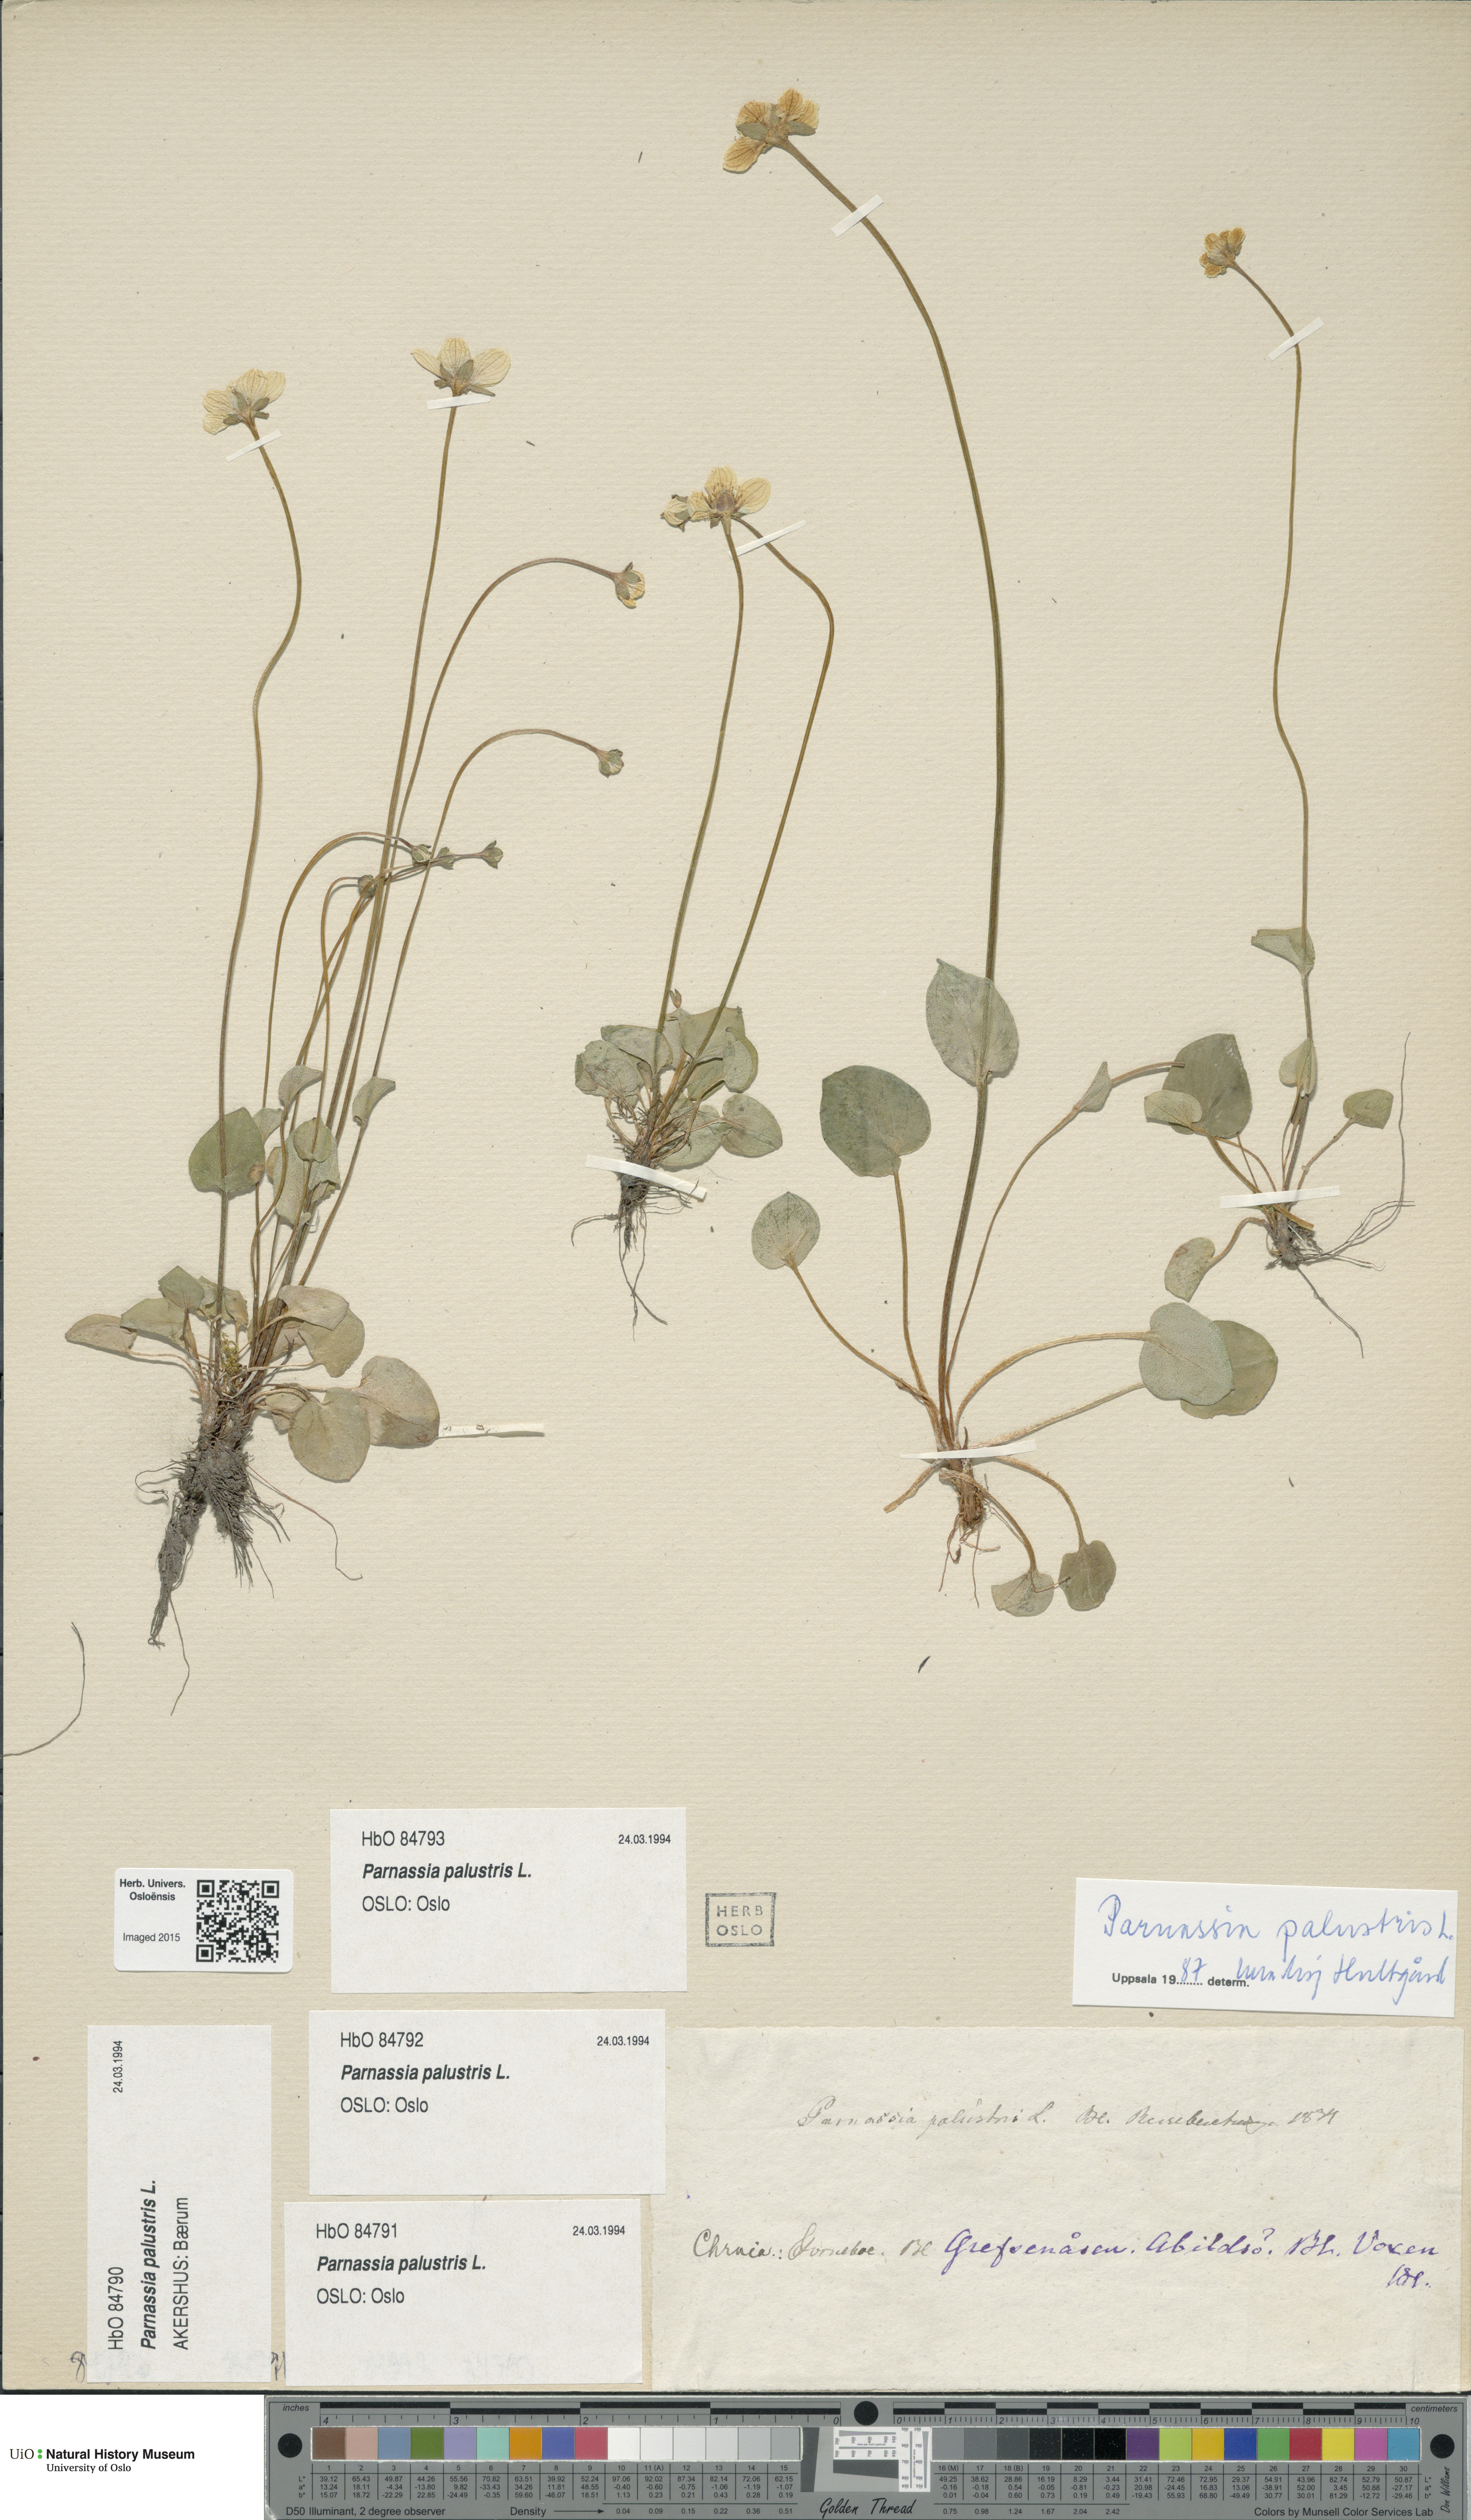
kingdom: Plantae
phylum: Tracheophyta
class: Magnoliopsida
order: Celastrales
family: Parnassiaceae
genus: Parnassia
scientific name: Parnassia palustris
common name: Grass-of-parnassus
